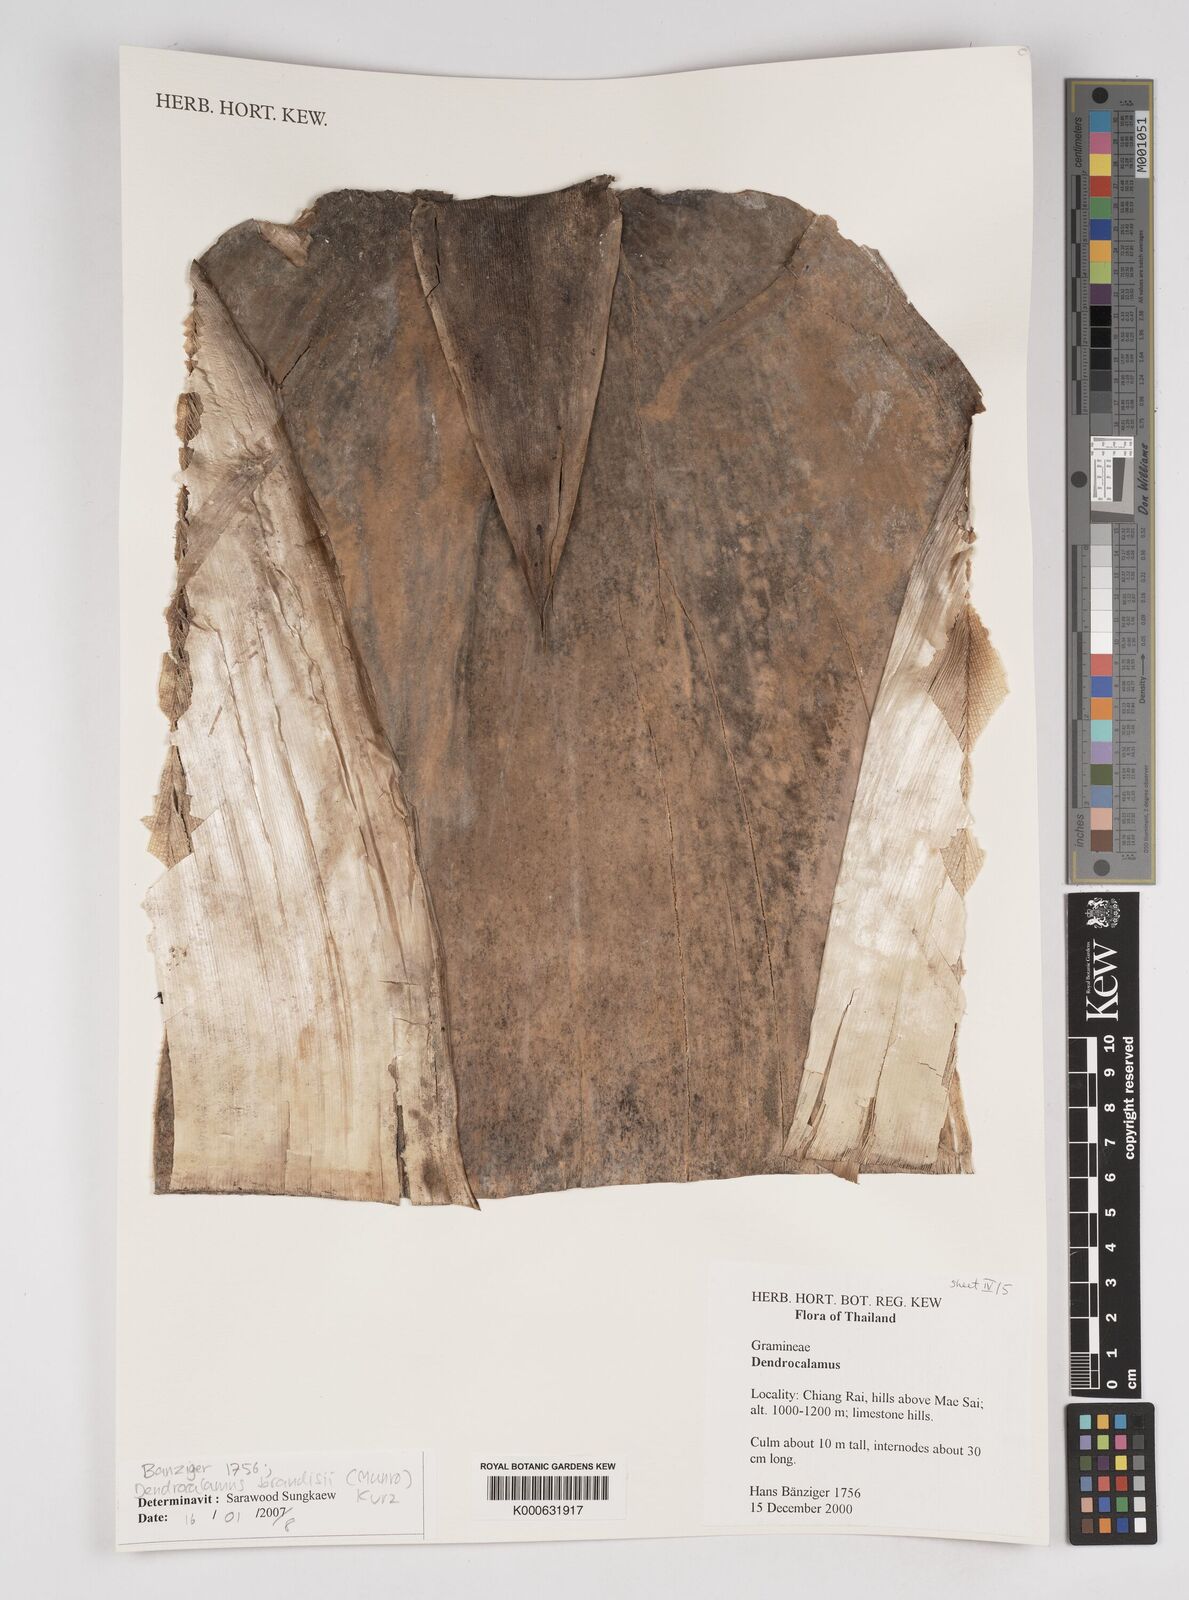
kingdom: Plantae
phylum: Tracheophyta
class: Liliopsida
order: Poales
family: Poaceae
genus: Dendrocalamus
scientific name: Dendrocalamus brandisii
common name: Velvetleaf bamboo
